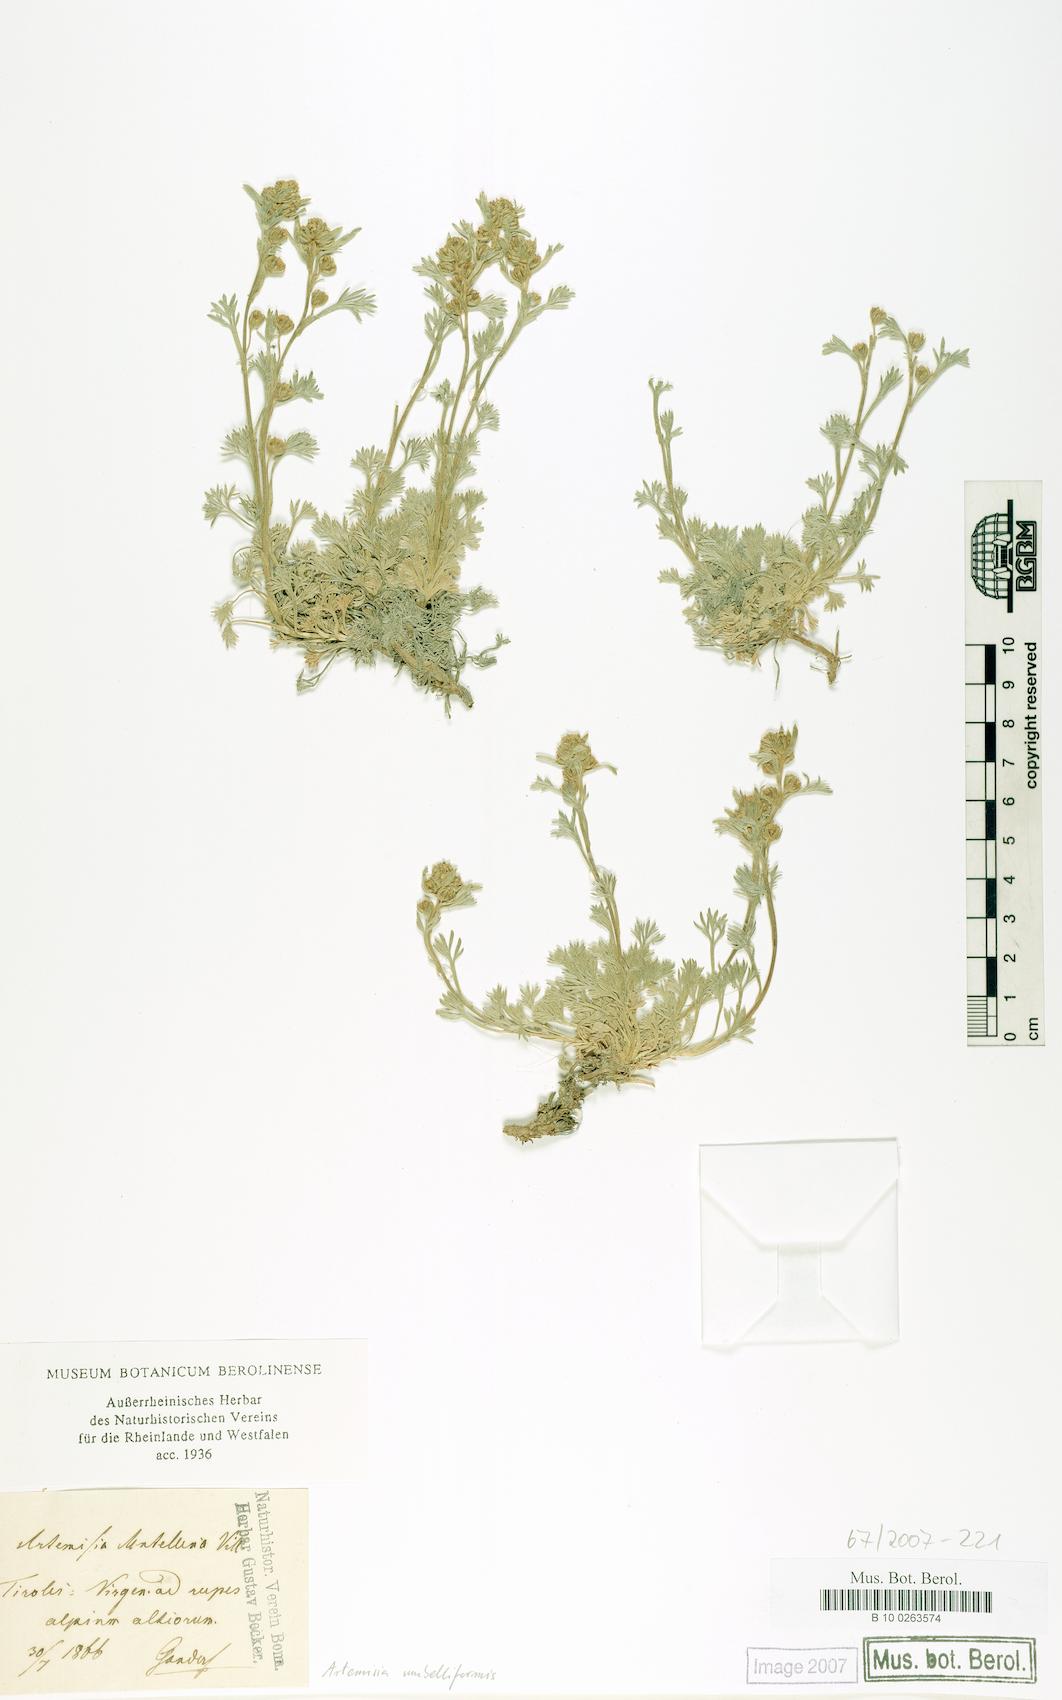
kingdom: Plantae
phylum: Tracheophyta
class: Magnoliopsida
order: Asterales
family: Asteraceae
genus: Artemisia
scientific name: Artemisia umbelliformis
